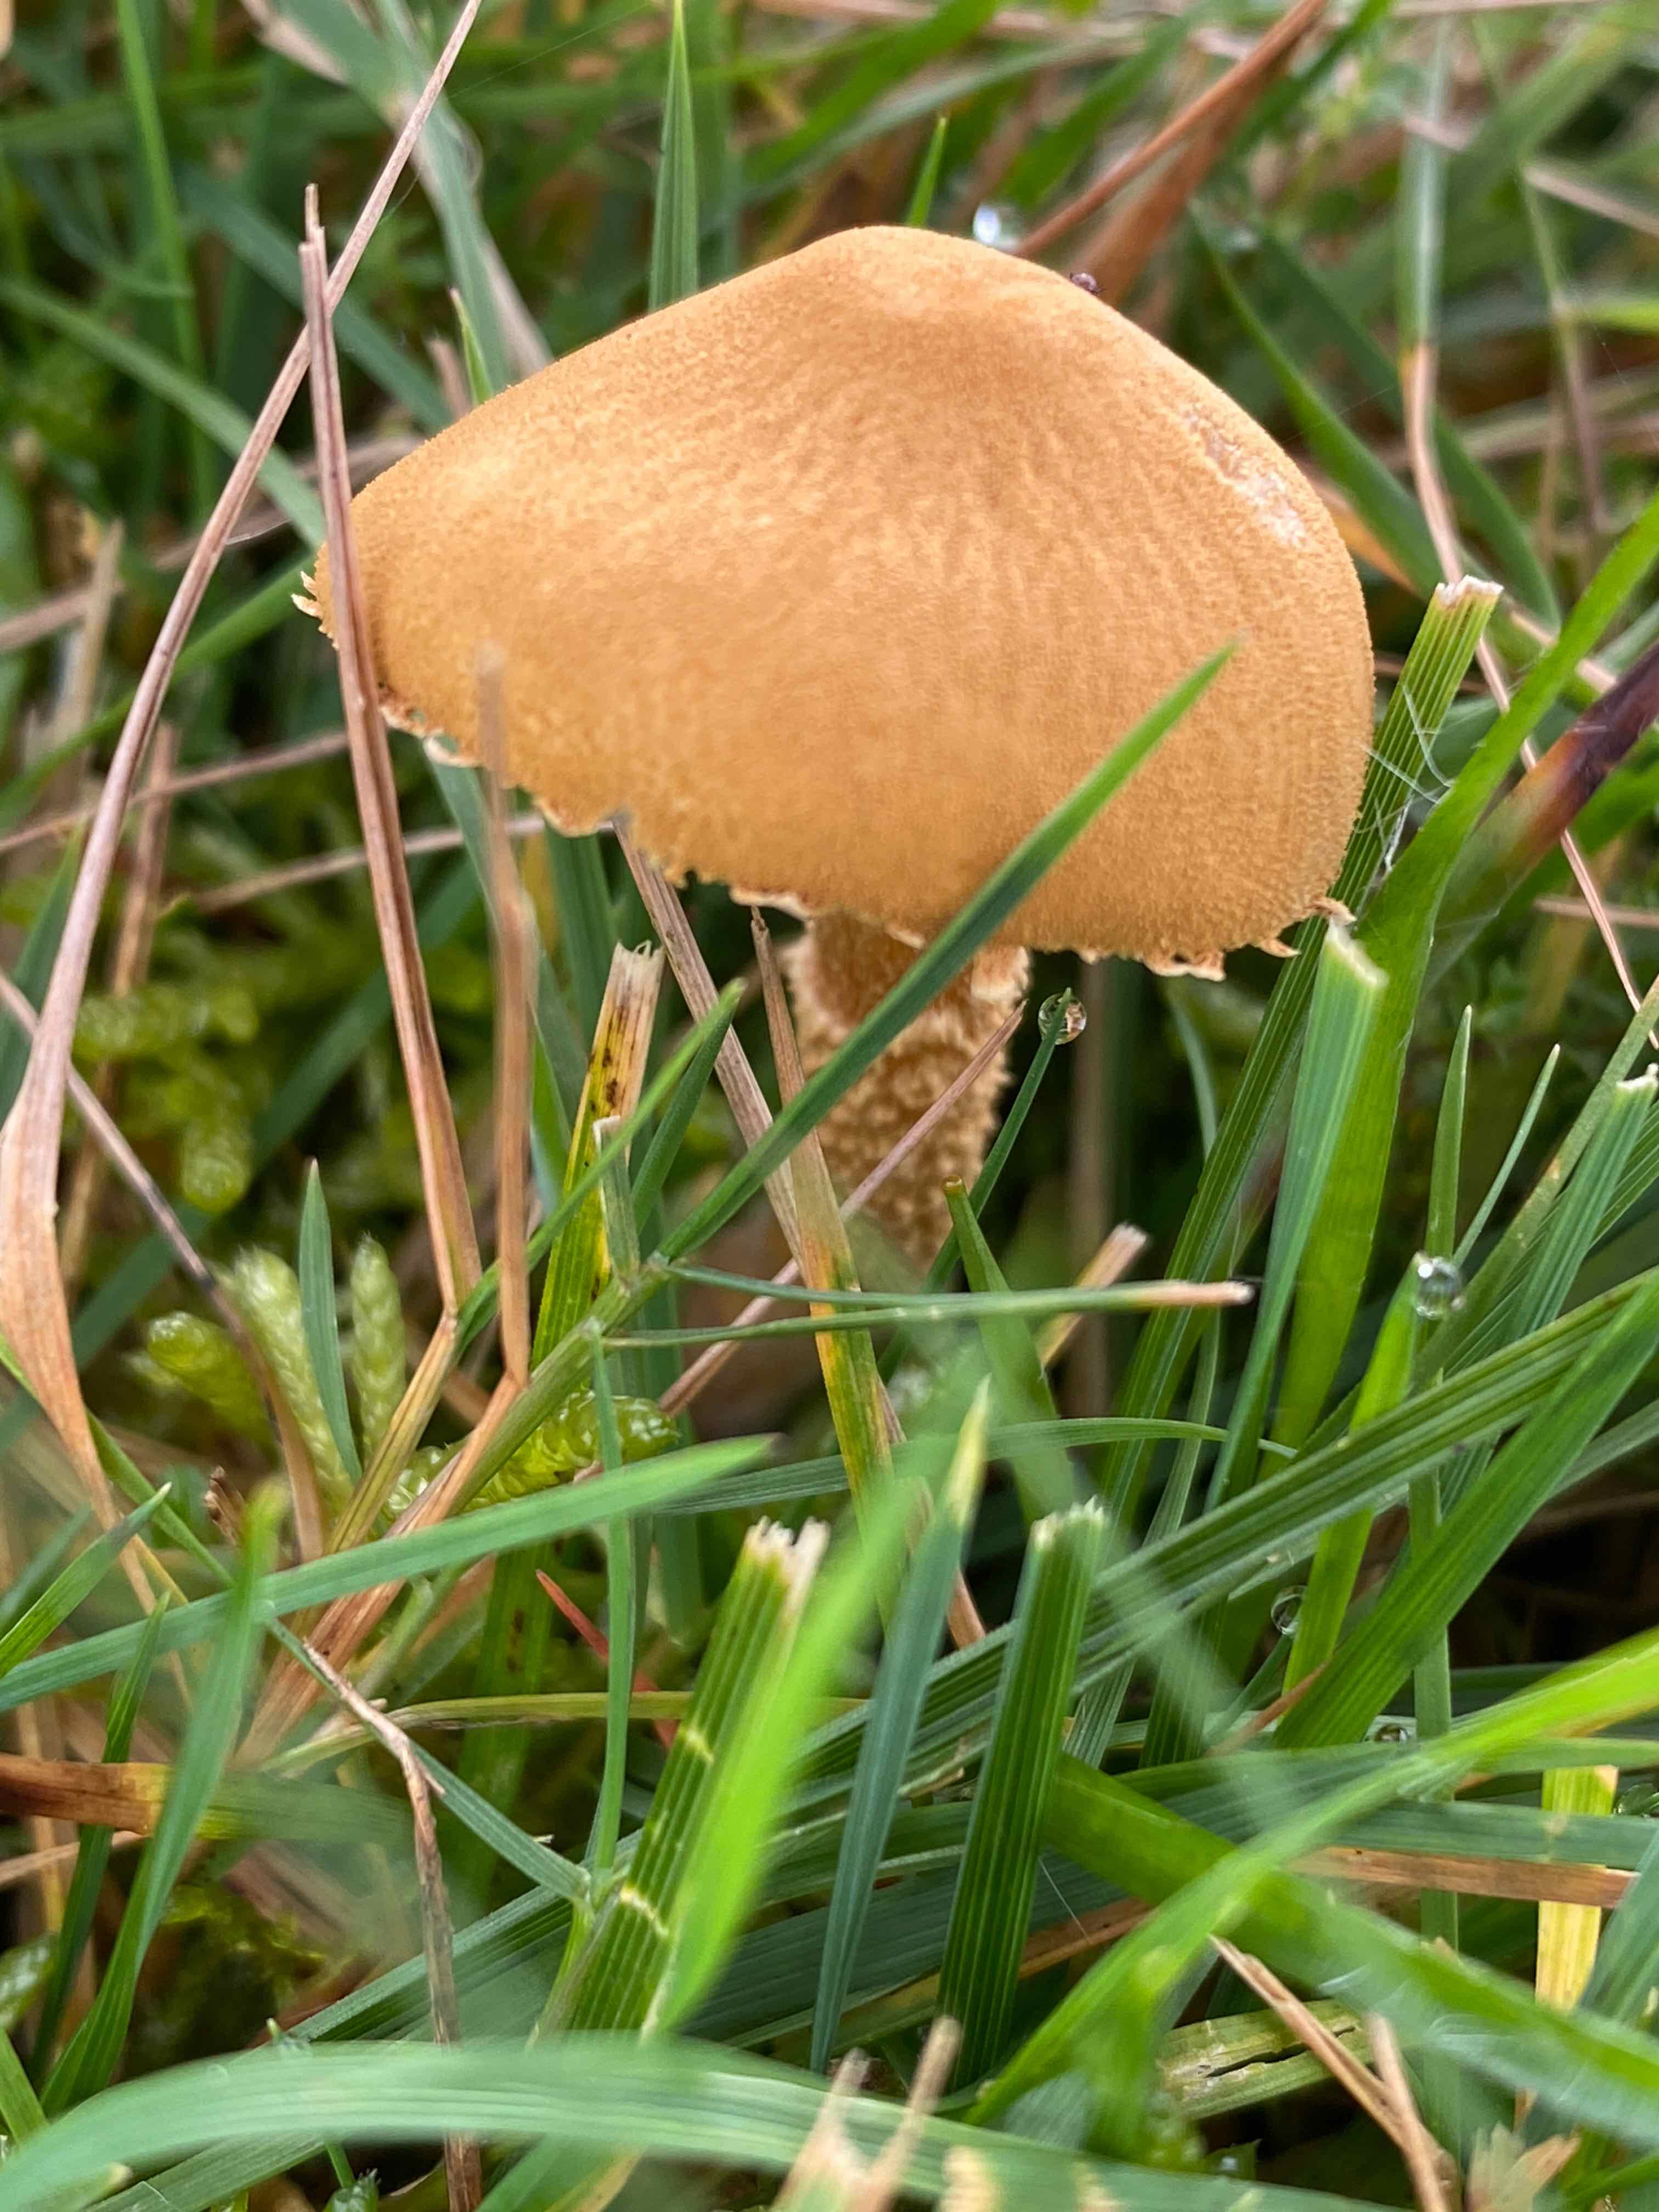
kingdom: Fungi
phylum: Basidiomycota
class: Agaricomycetes
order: Agaricales
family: Tricholomataceae
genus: Cystoderma
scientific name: Cystoderma amianthinum
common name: okkergul grynhat
